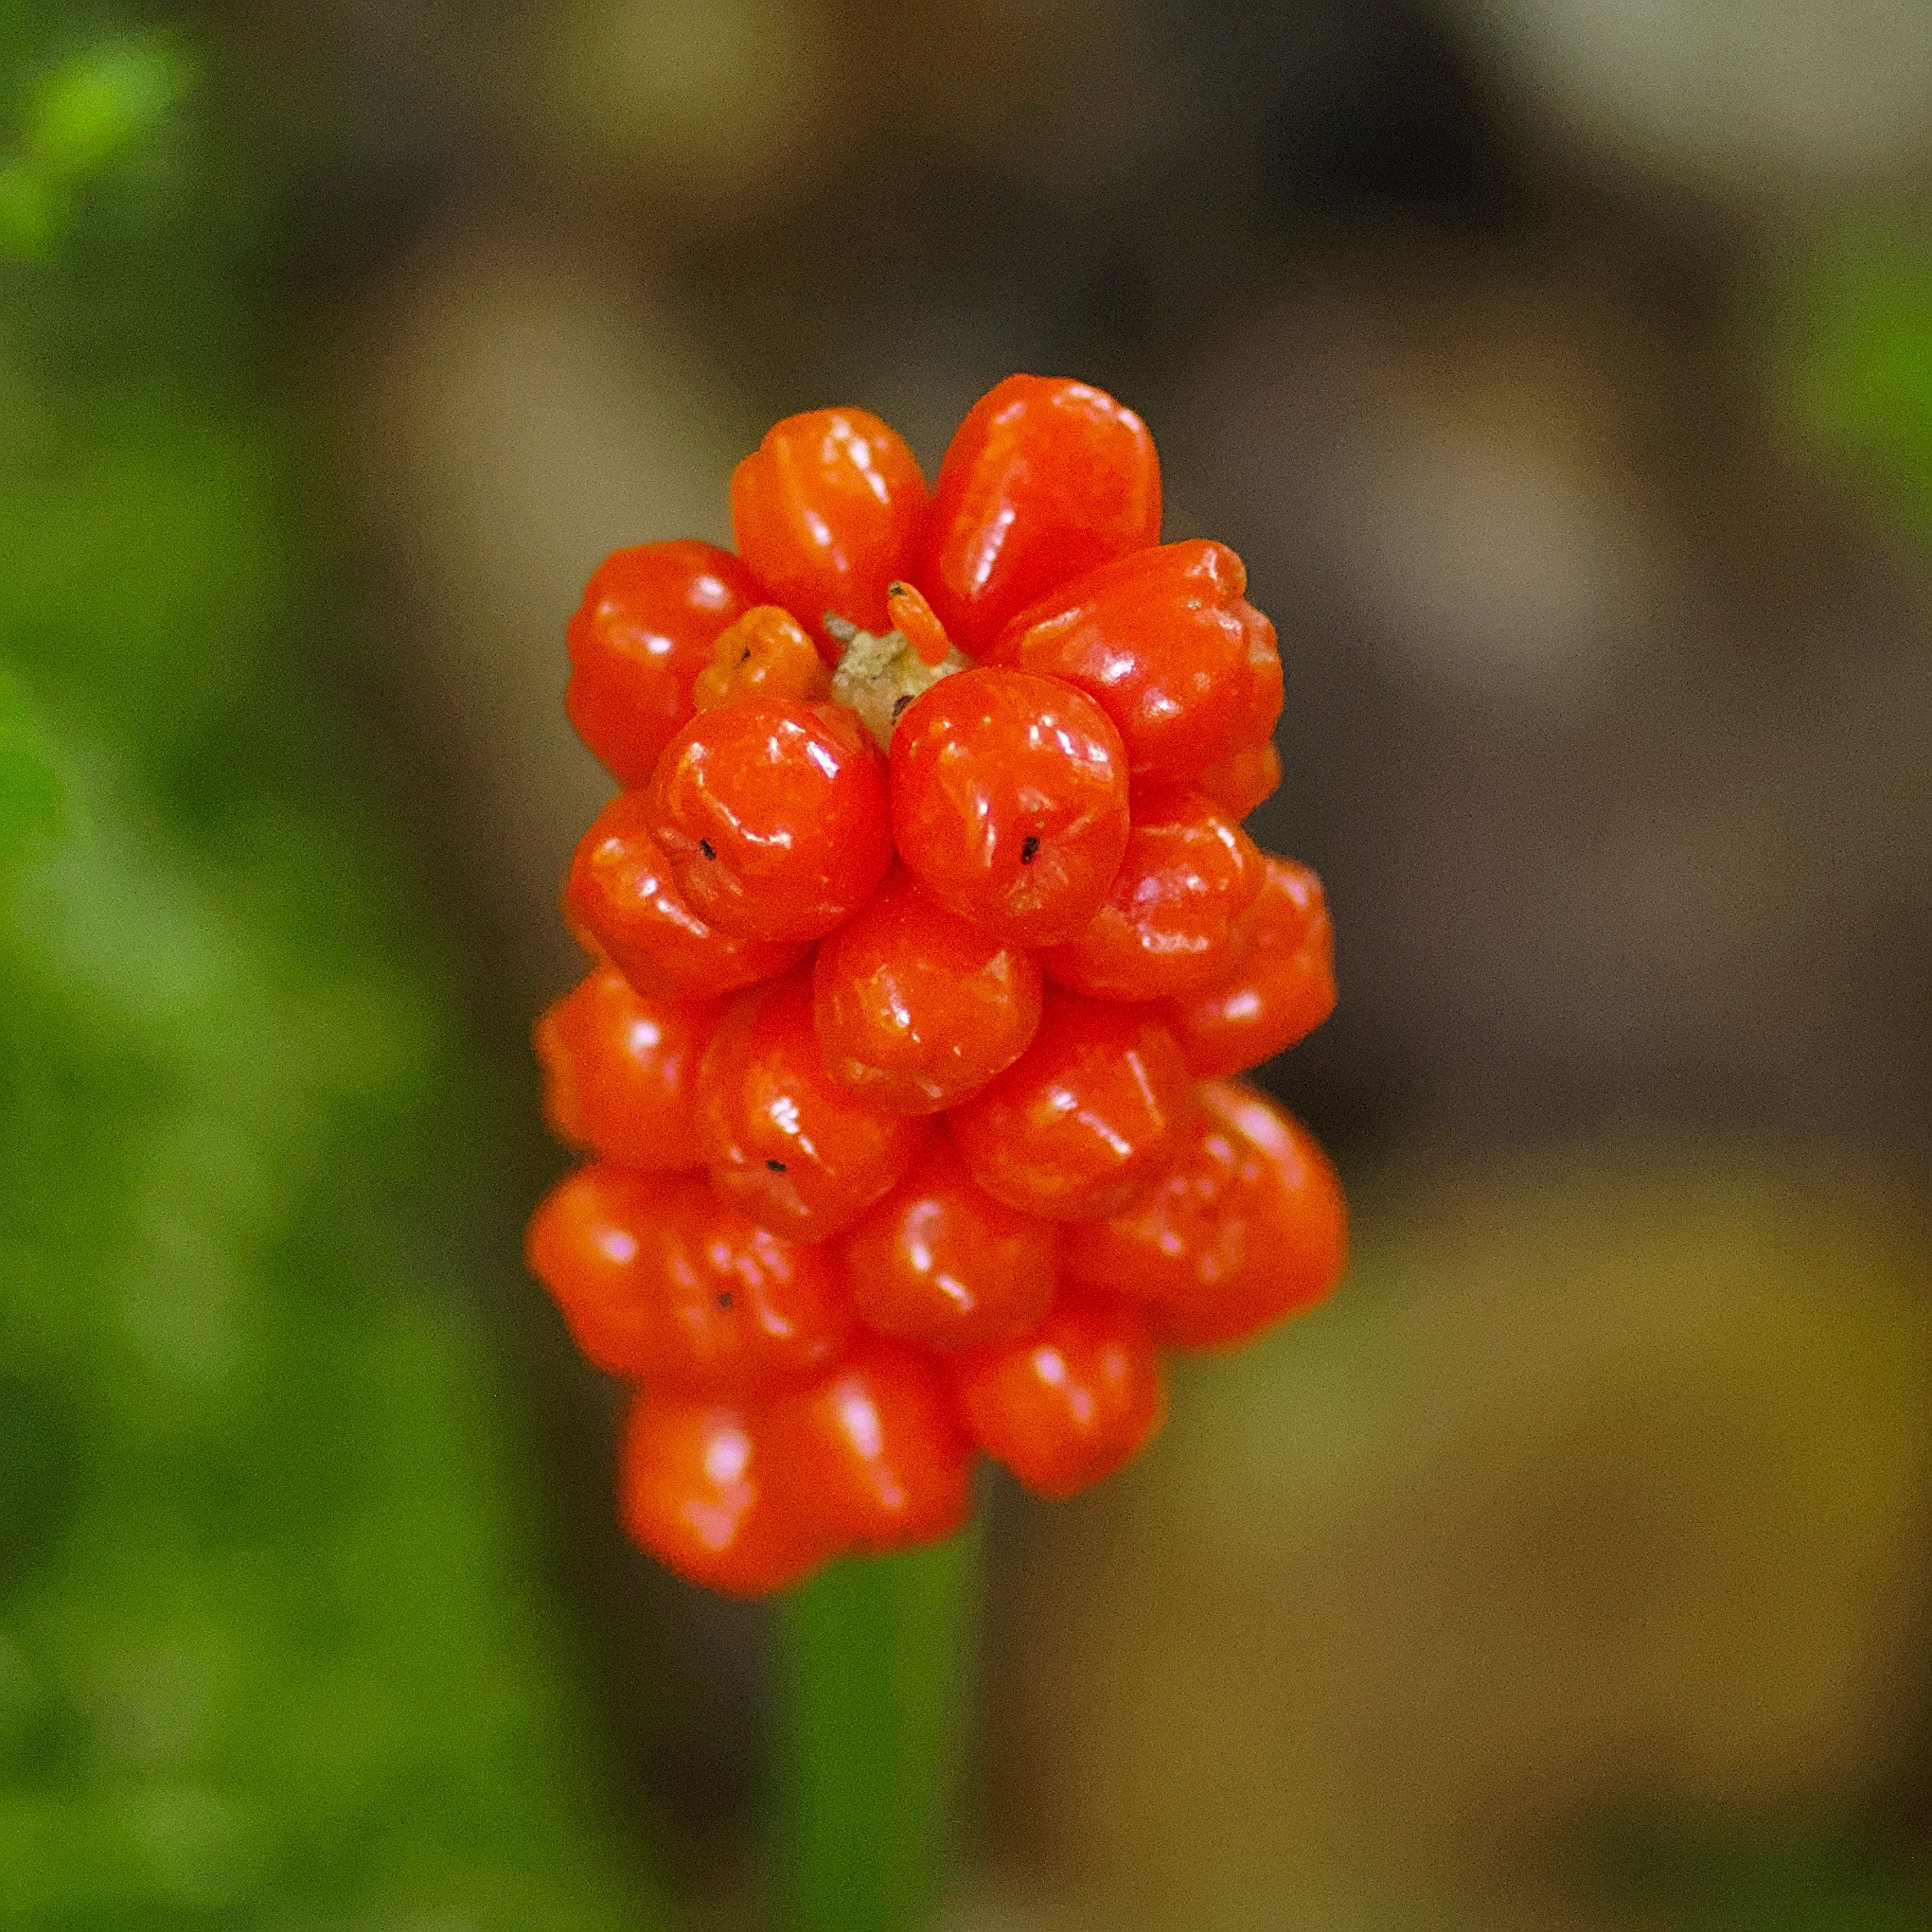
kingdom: Plantae
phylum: Tracheophyta
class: Liliopsida
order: Alismatales
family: Araceae
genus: Arum
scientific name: Arum
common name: Arumslægten
